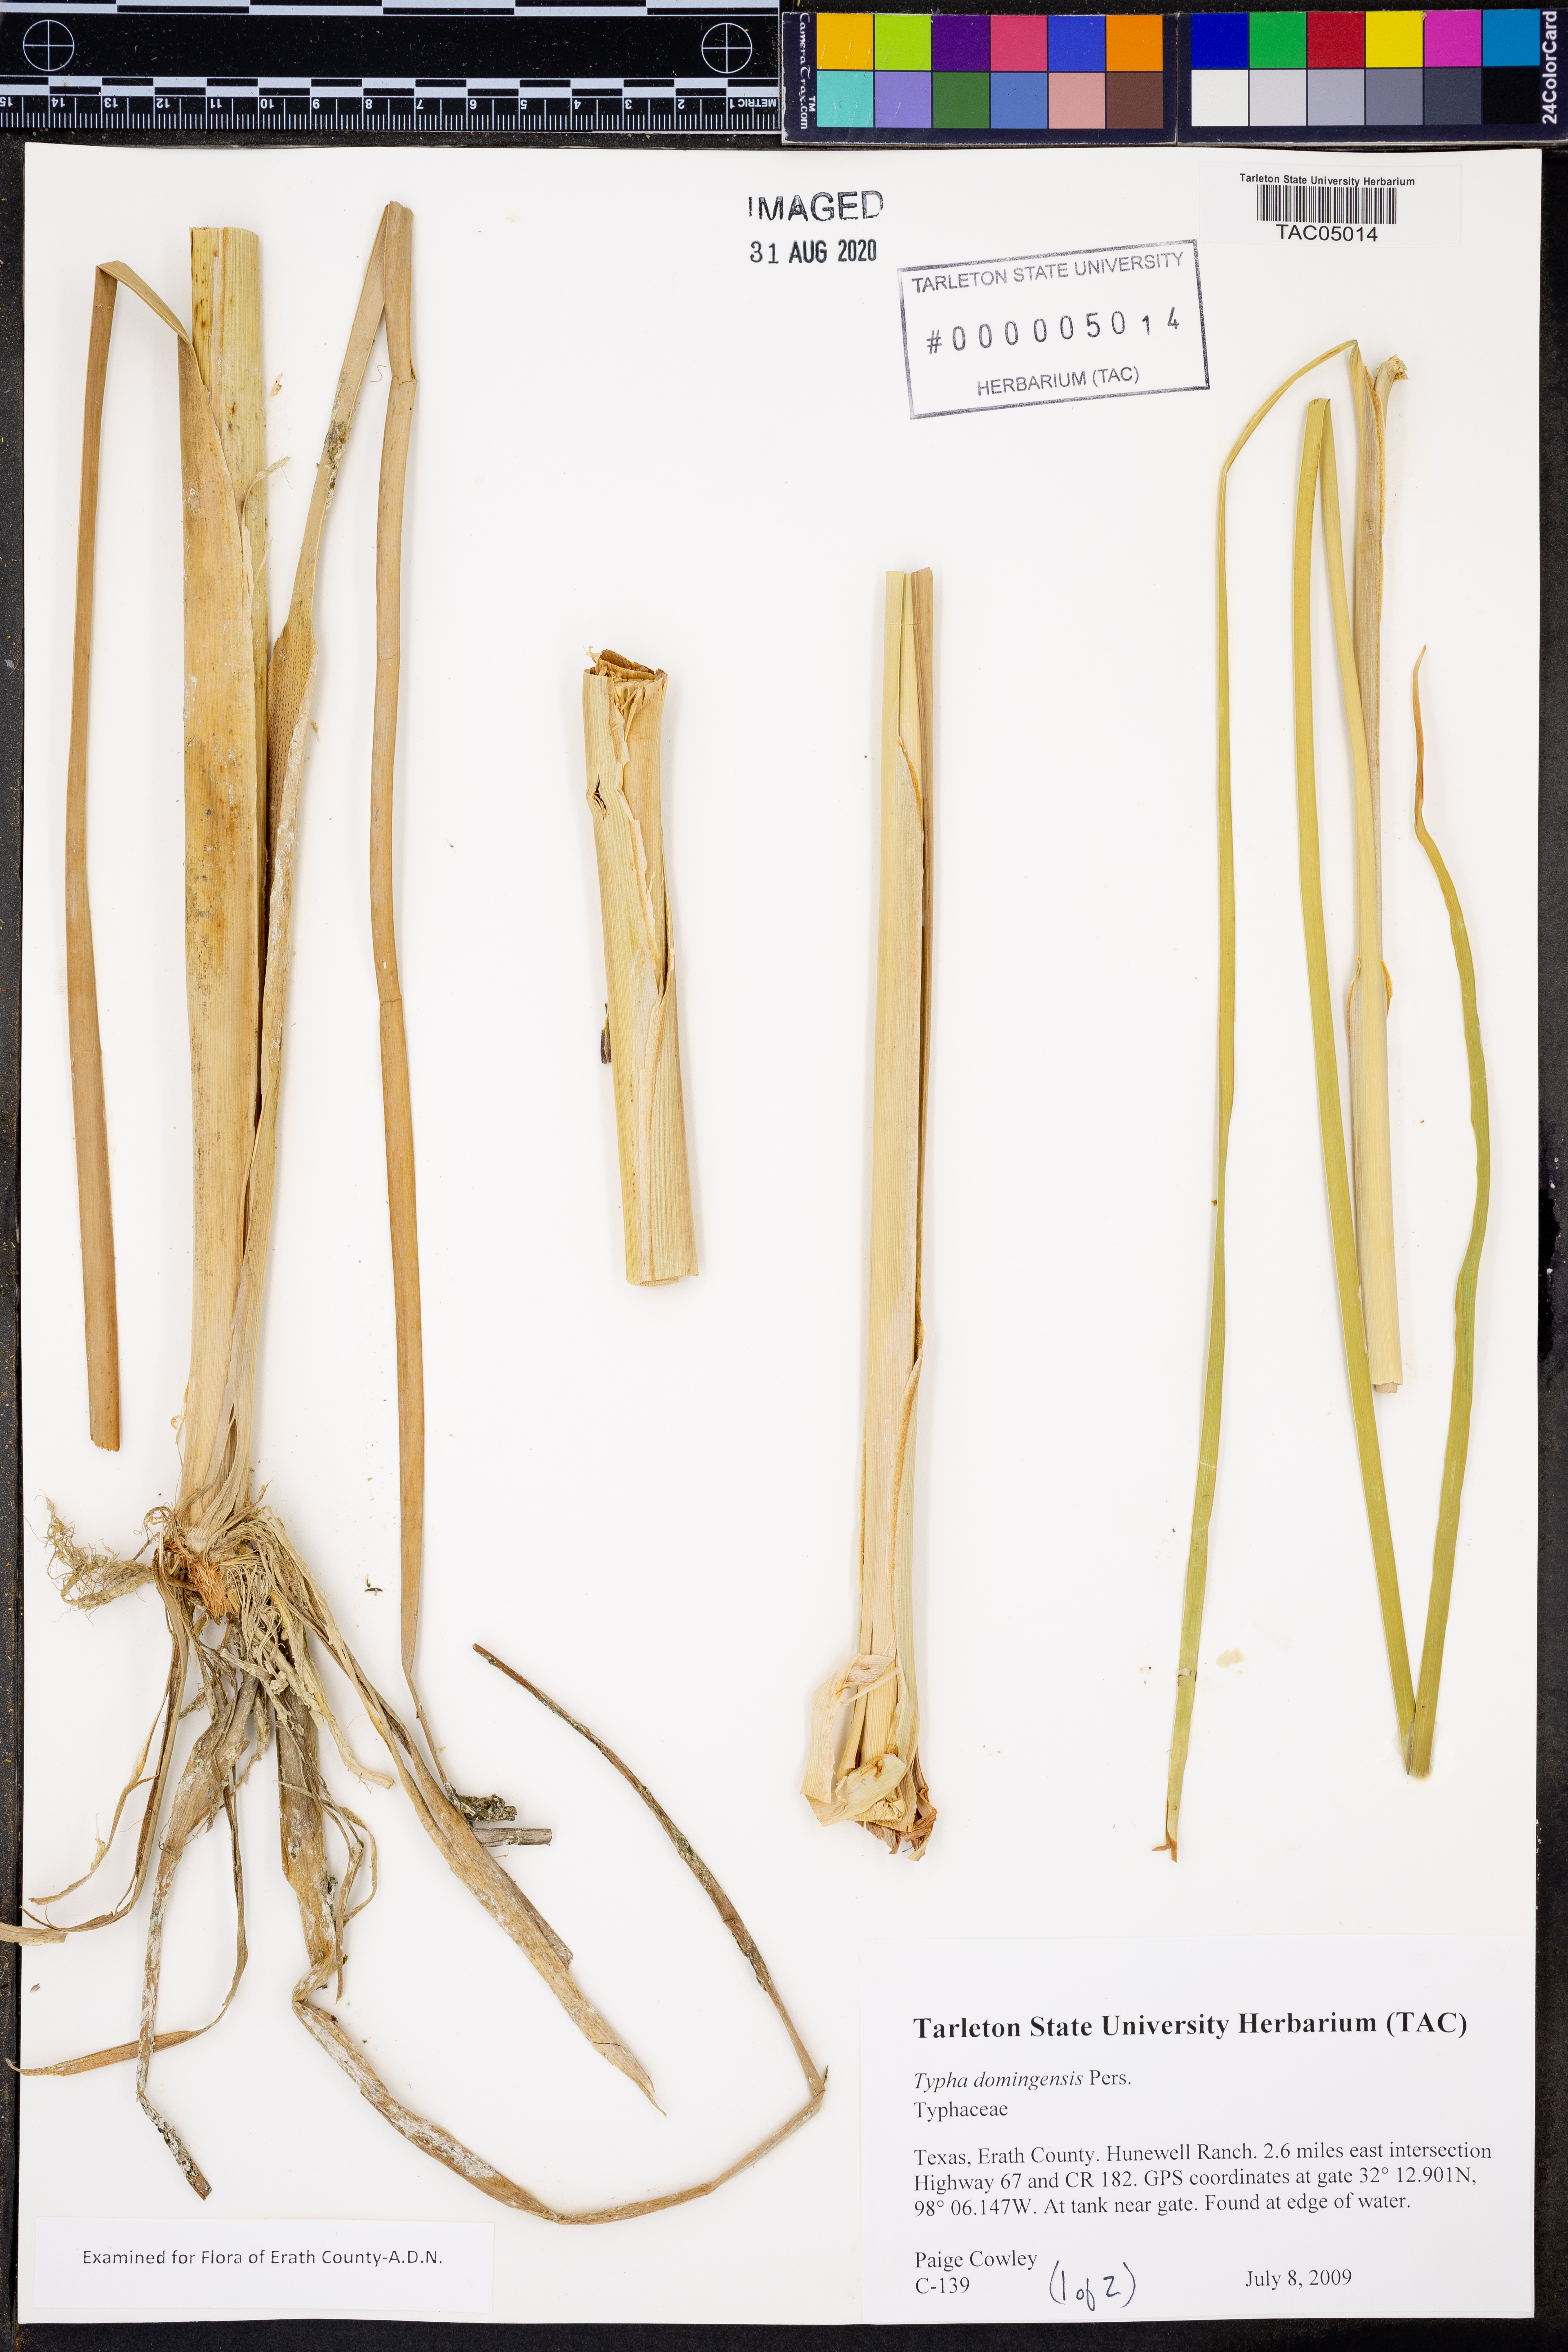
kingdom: Plantae
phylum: Tracheophyta
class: Liliopsida
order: Poales
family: Typhaceae
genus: Typha
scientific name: Typha domingensis
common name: Southern cattail
